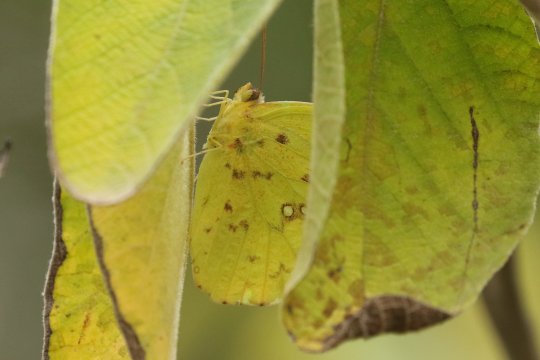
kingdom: Animalia
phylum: Arthropoda
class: Insecta
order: Lepidoptera
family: Pieridae
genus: Phoebis
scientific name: Phoebis sennae
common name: Cloudless Sulphur
